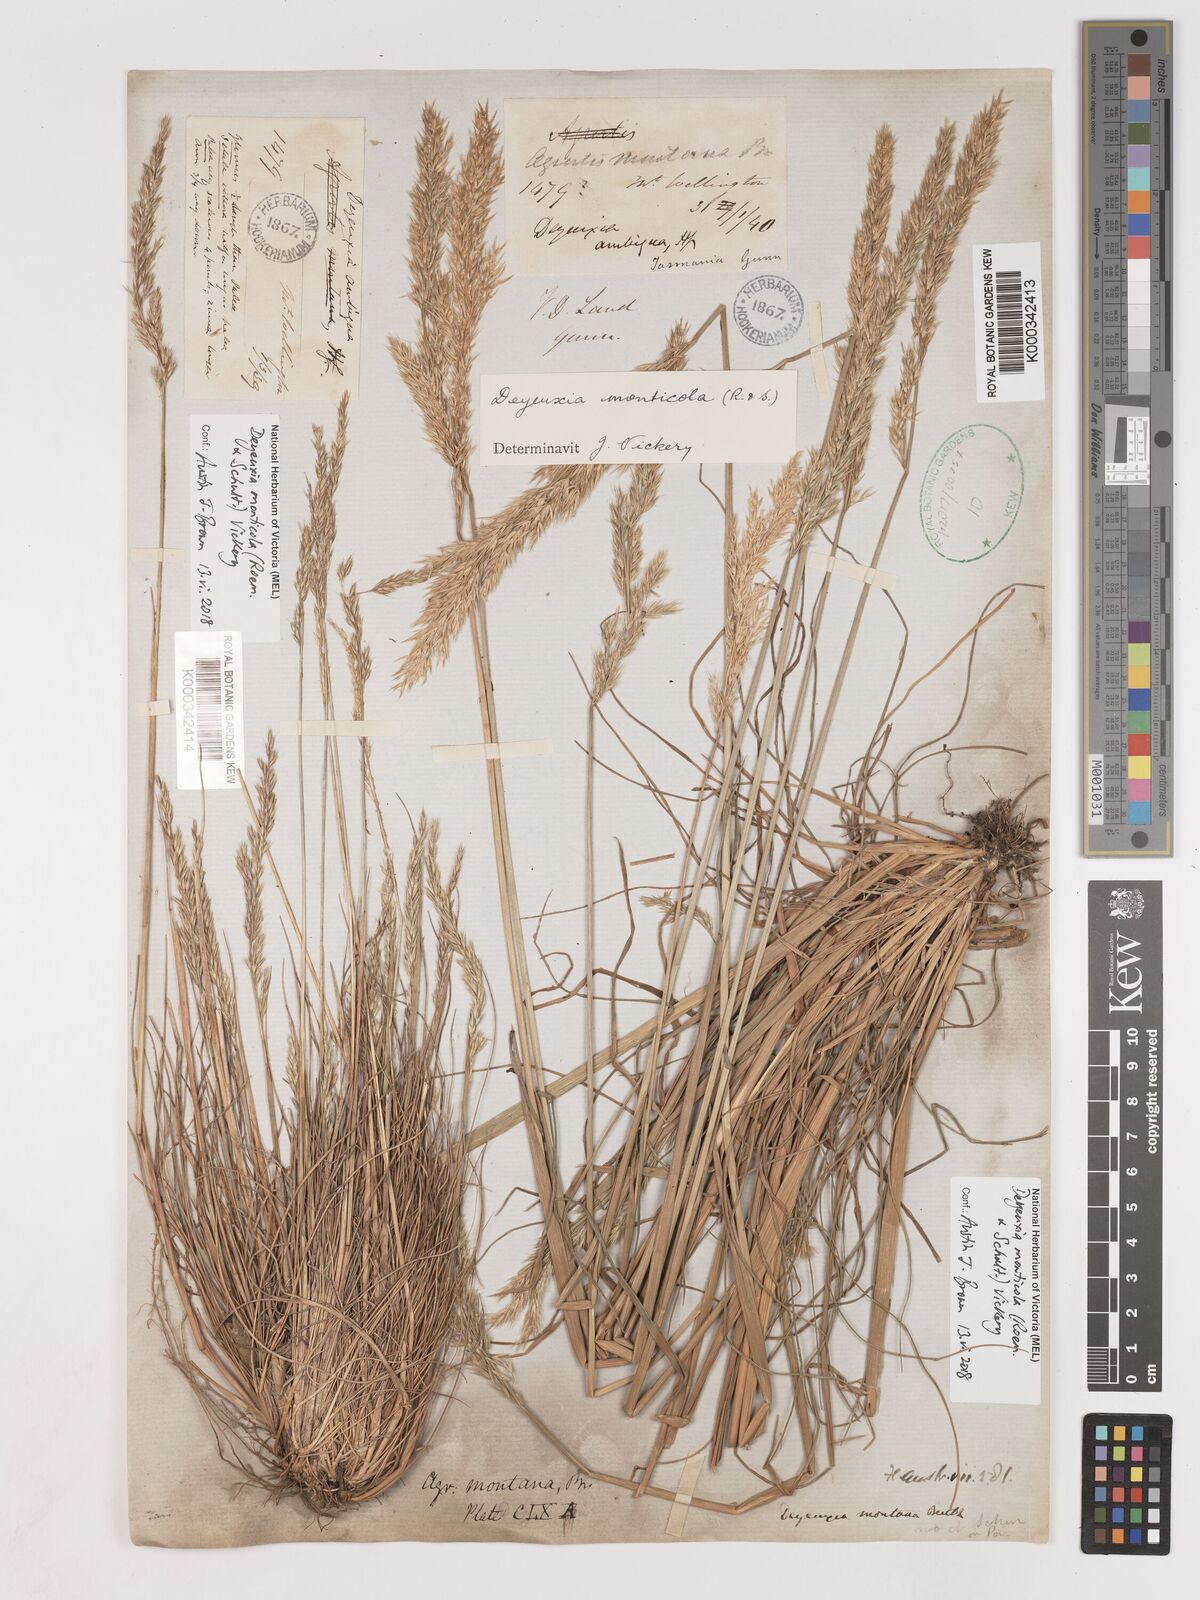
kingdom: Plantae
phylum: Tracheophyta
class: Liliopsida
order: Poales
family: Poaceae
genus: Calamagrostis
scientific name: Calamagrostis oreophila
